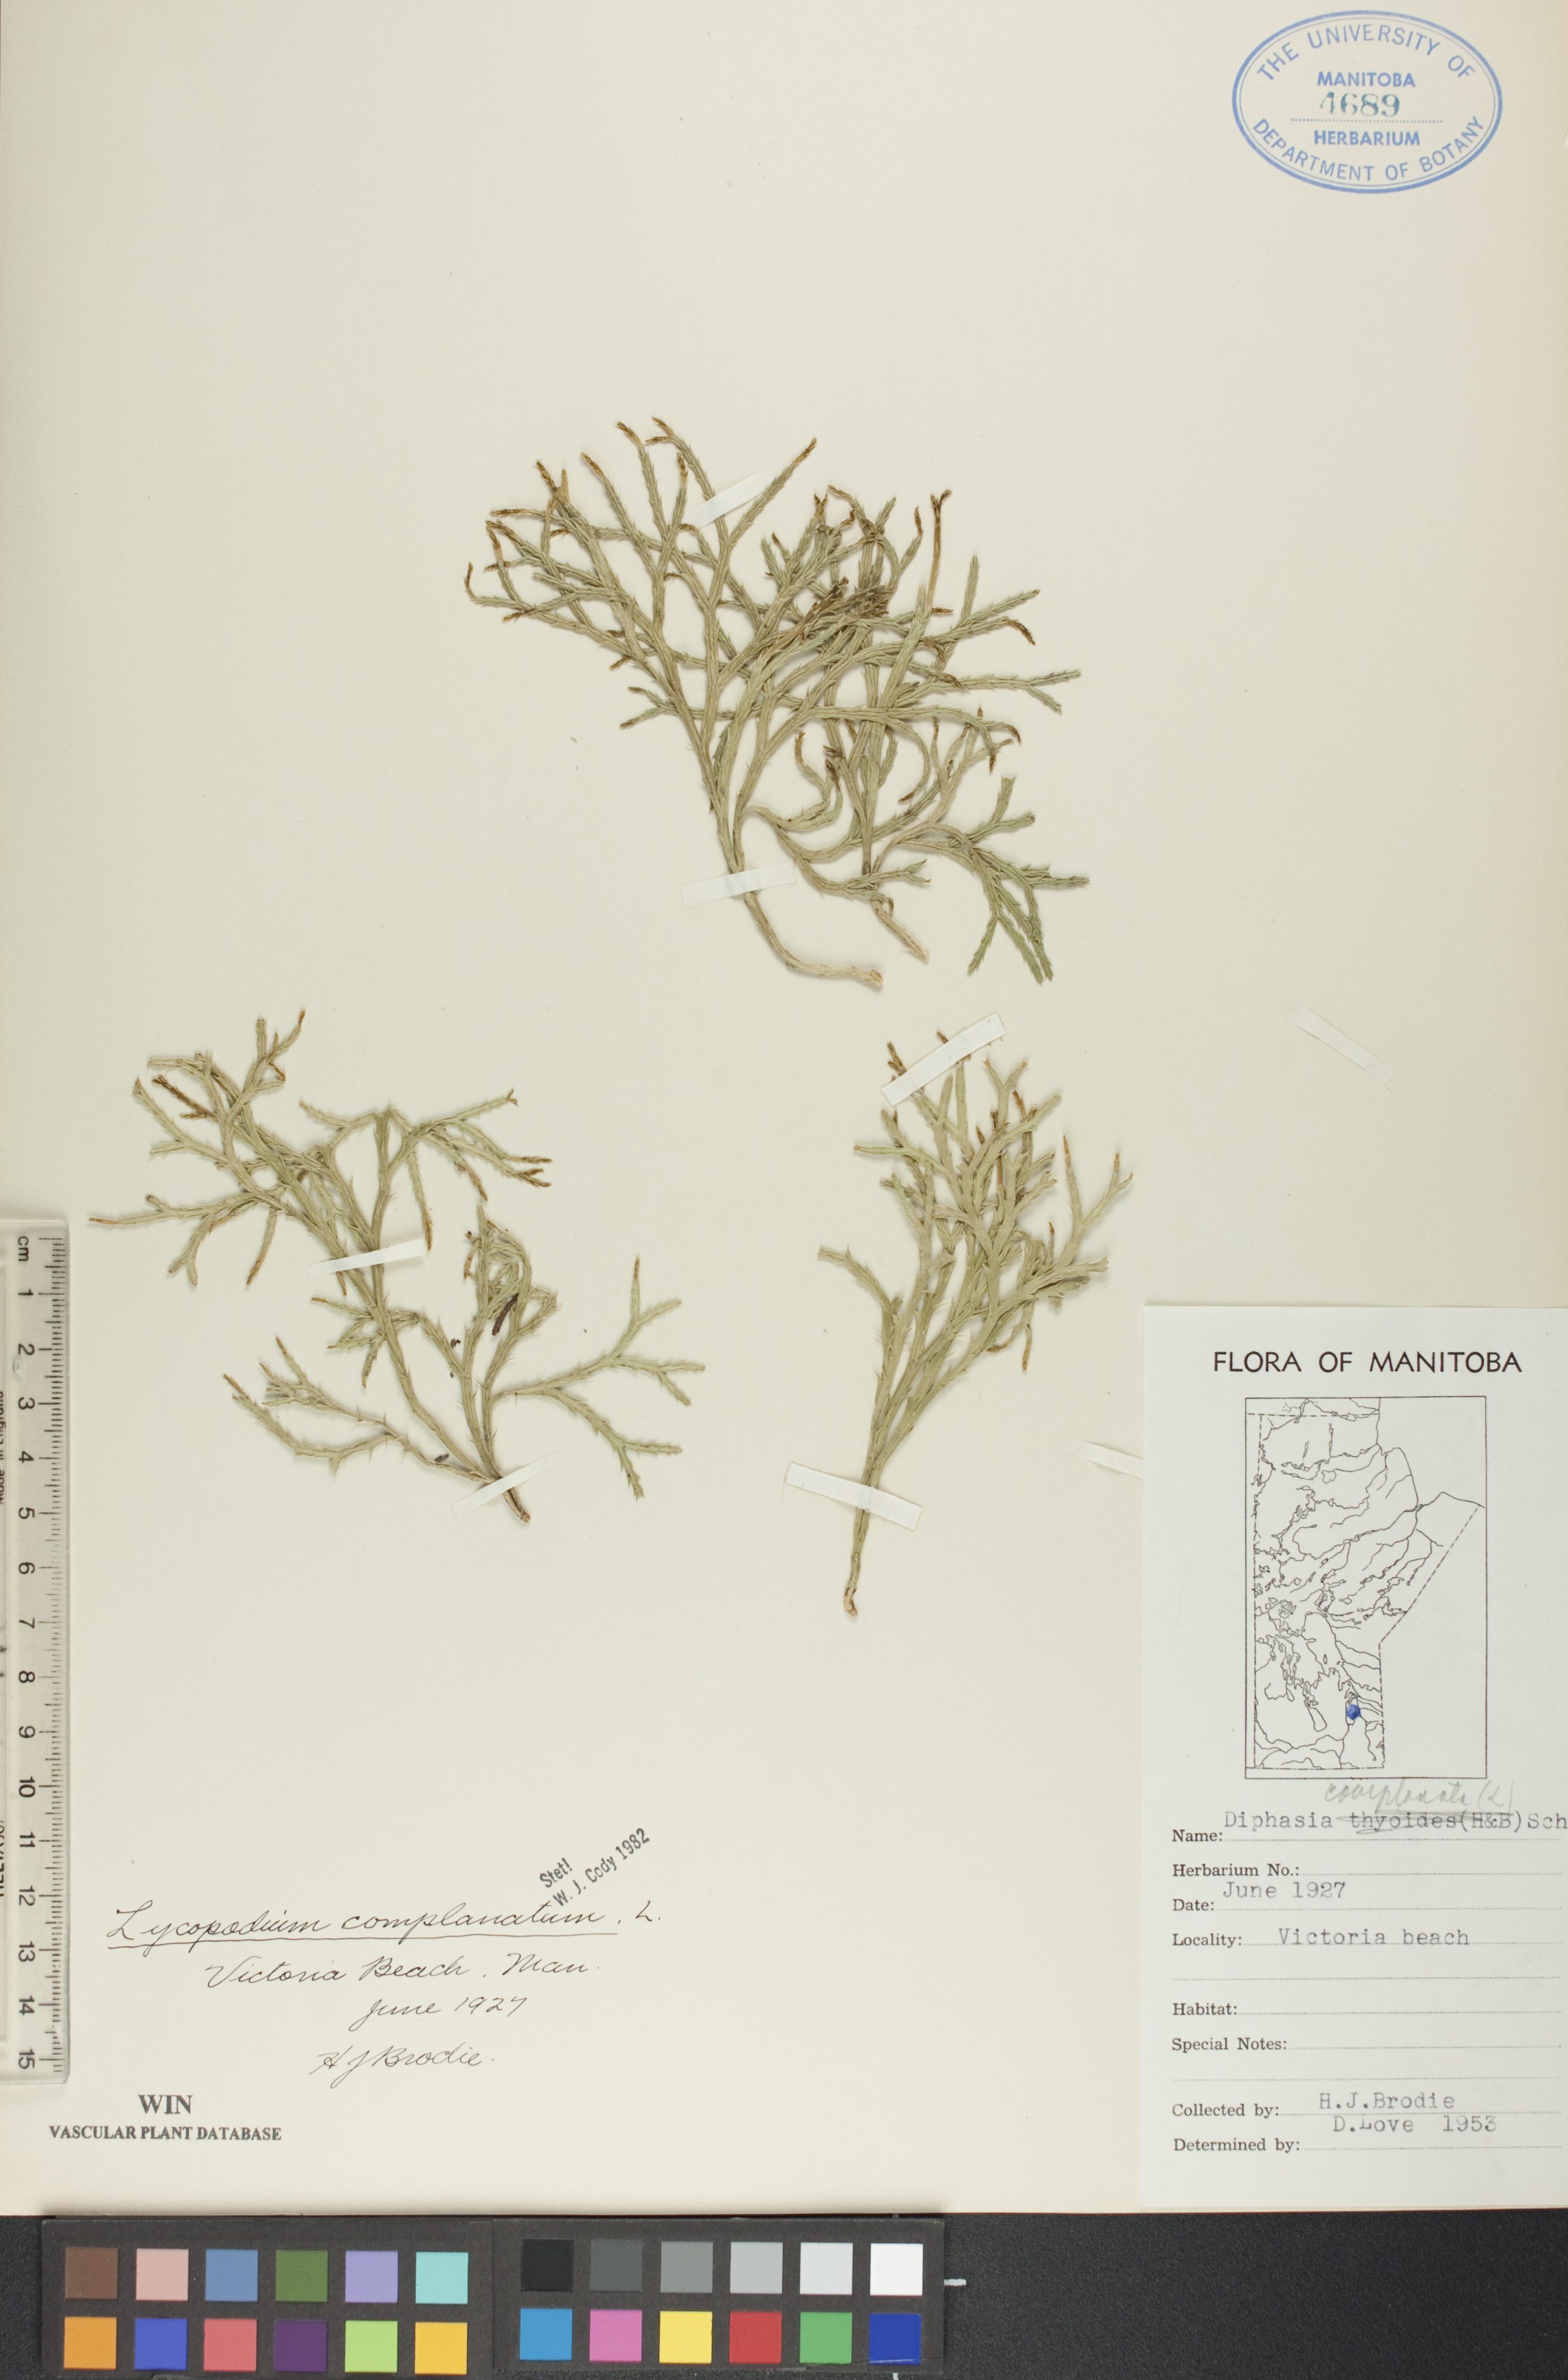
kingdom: Plantae
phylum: Tracheophyta
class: Lycopodiopsida
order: Lycopodiales
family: Lycopodiaceae
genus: Diphasiastrum
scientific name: Diphasiastrum complanatum
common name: Northern running-pine
